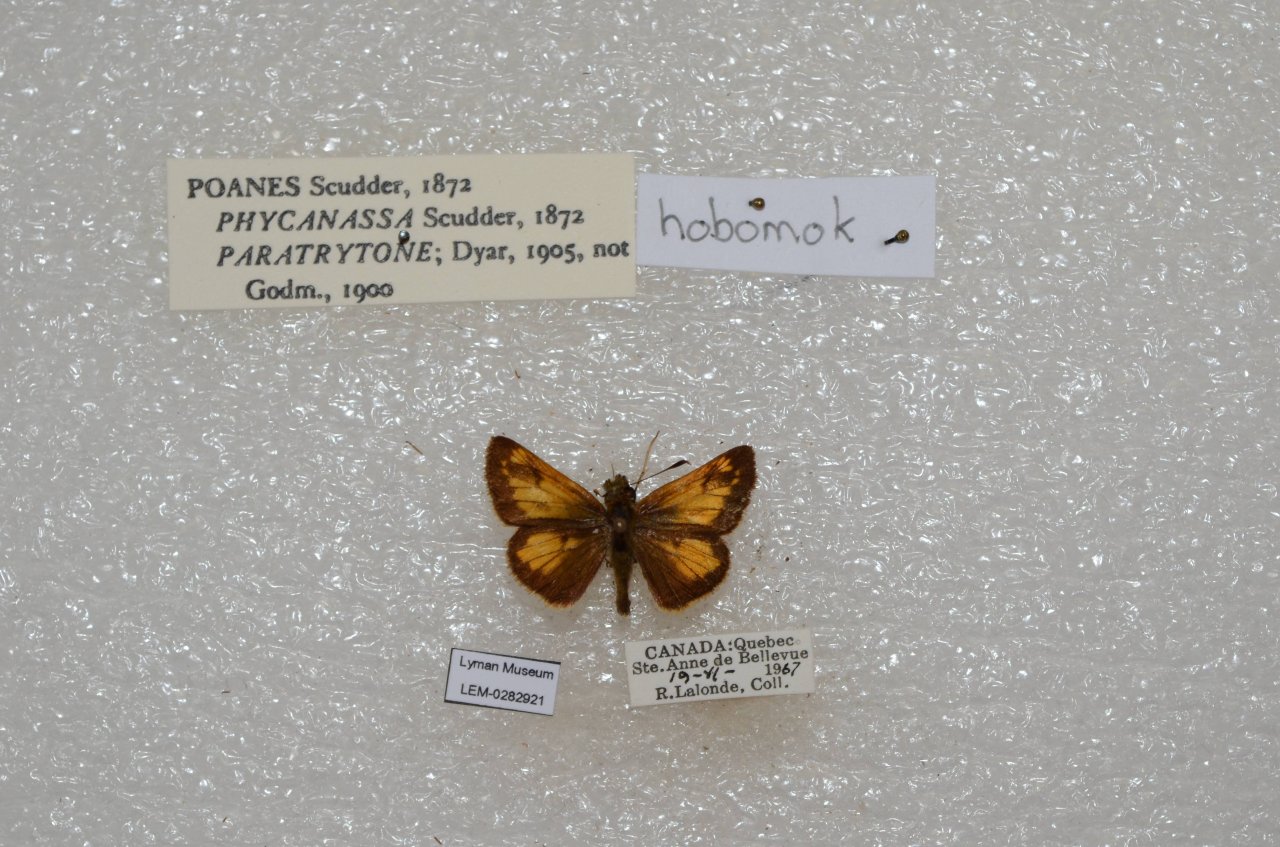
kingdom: Animalia
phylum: Arthropoda
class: Insecta
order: Lepidoptera
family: Hesperiidae
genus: Lon
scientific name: Lon hobomok
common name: Hobomok Skipper
